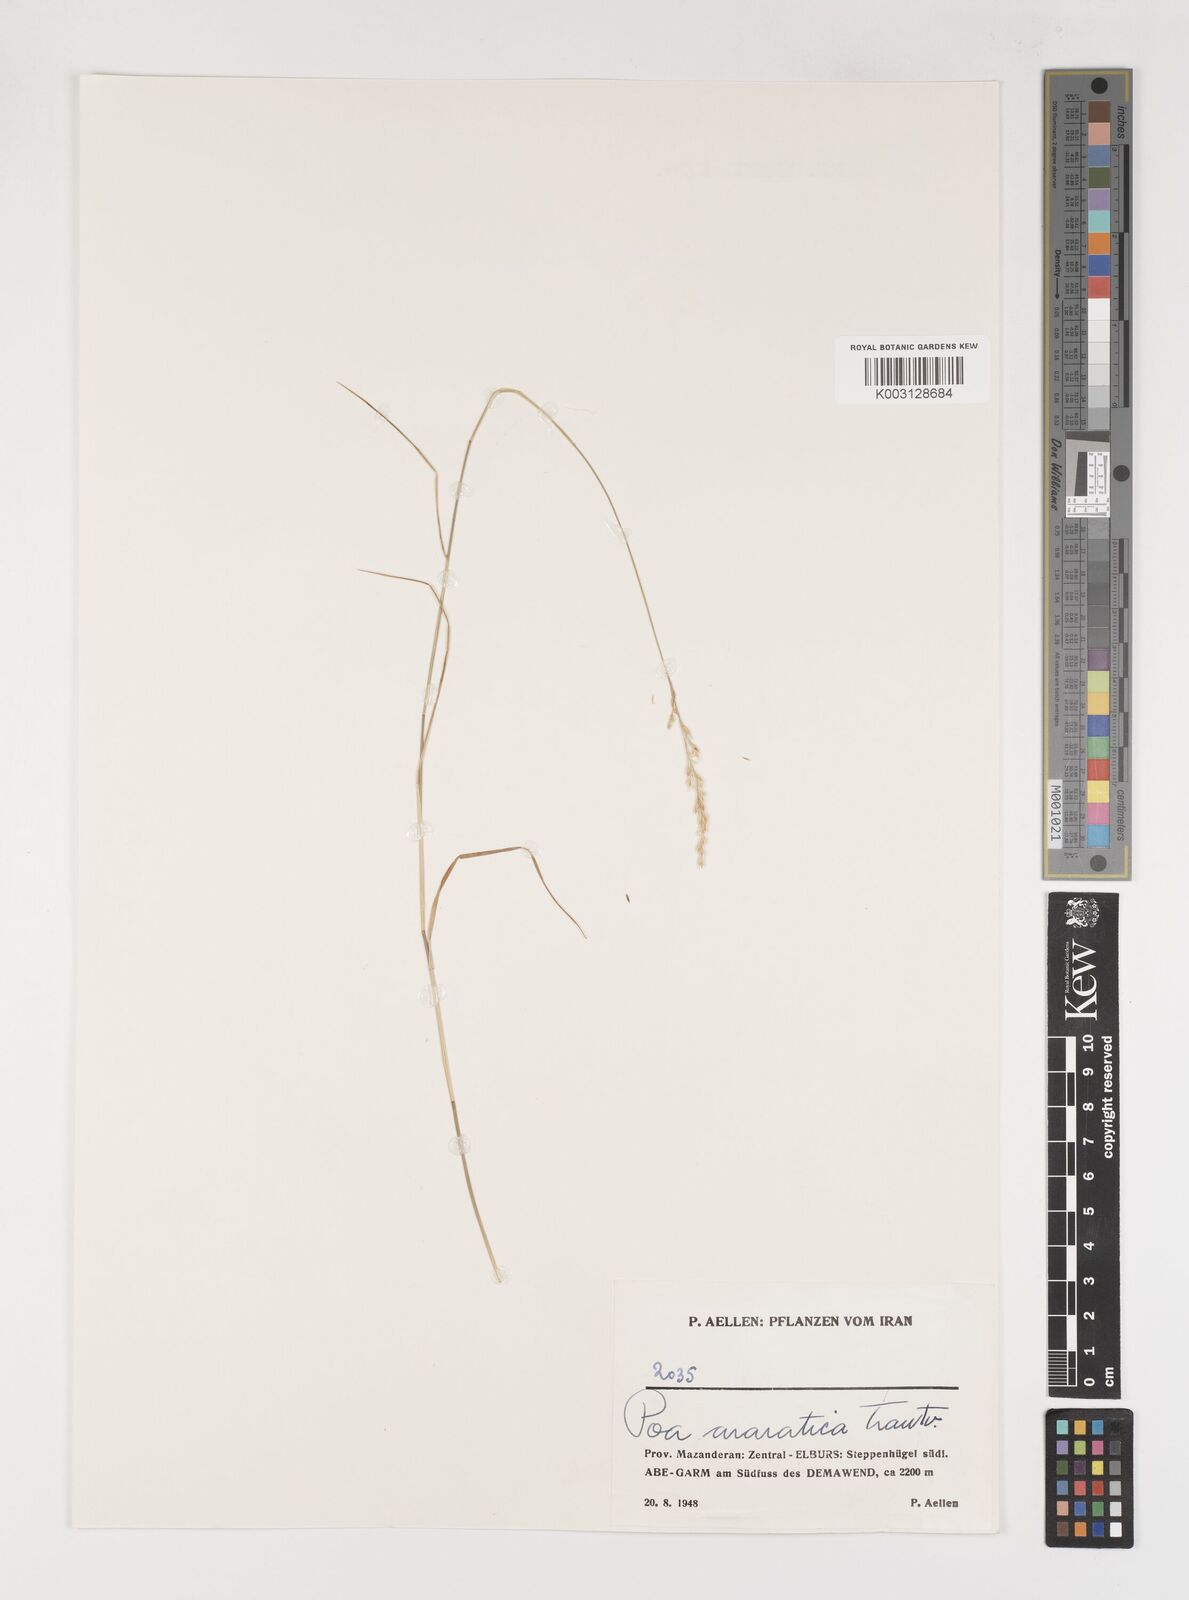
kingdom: Plantae
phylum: Tracheophyta
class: Liliopsida
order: Poales
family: Poaceae
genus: Poa
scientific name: Poa araratica
